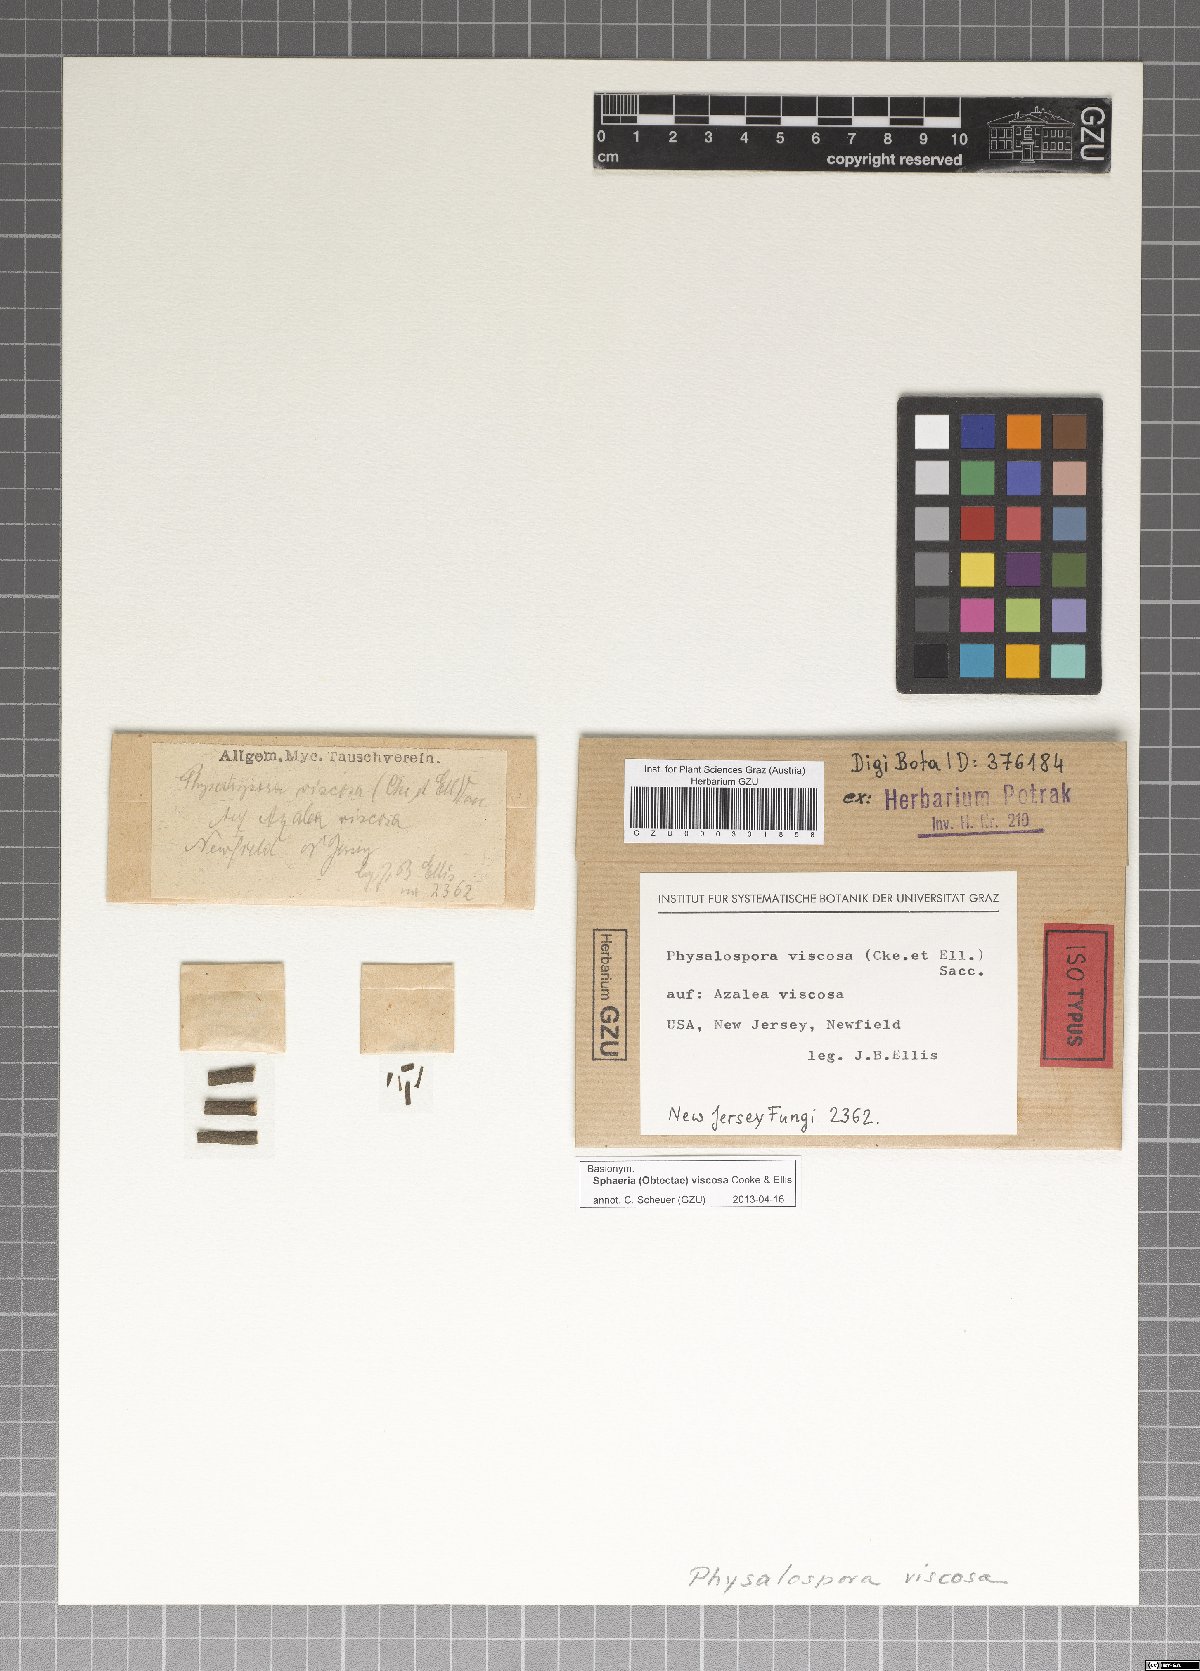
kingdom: Fungi
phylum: Ascomycota
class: Dothideomycetes
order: Botryosphaeriales
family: Botryosphaeriaceae
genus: Botryosphaeria
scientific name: Botryosphaeria viscosa
